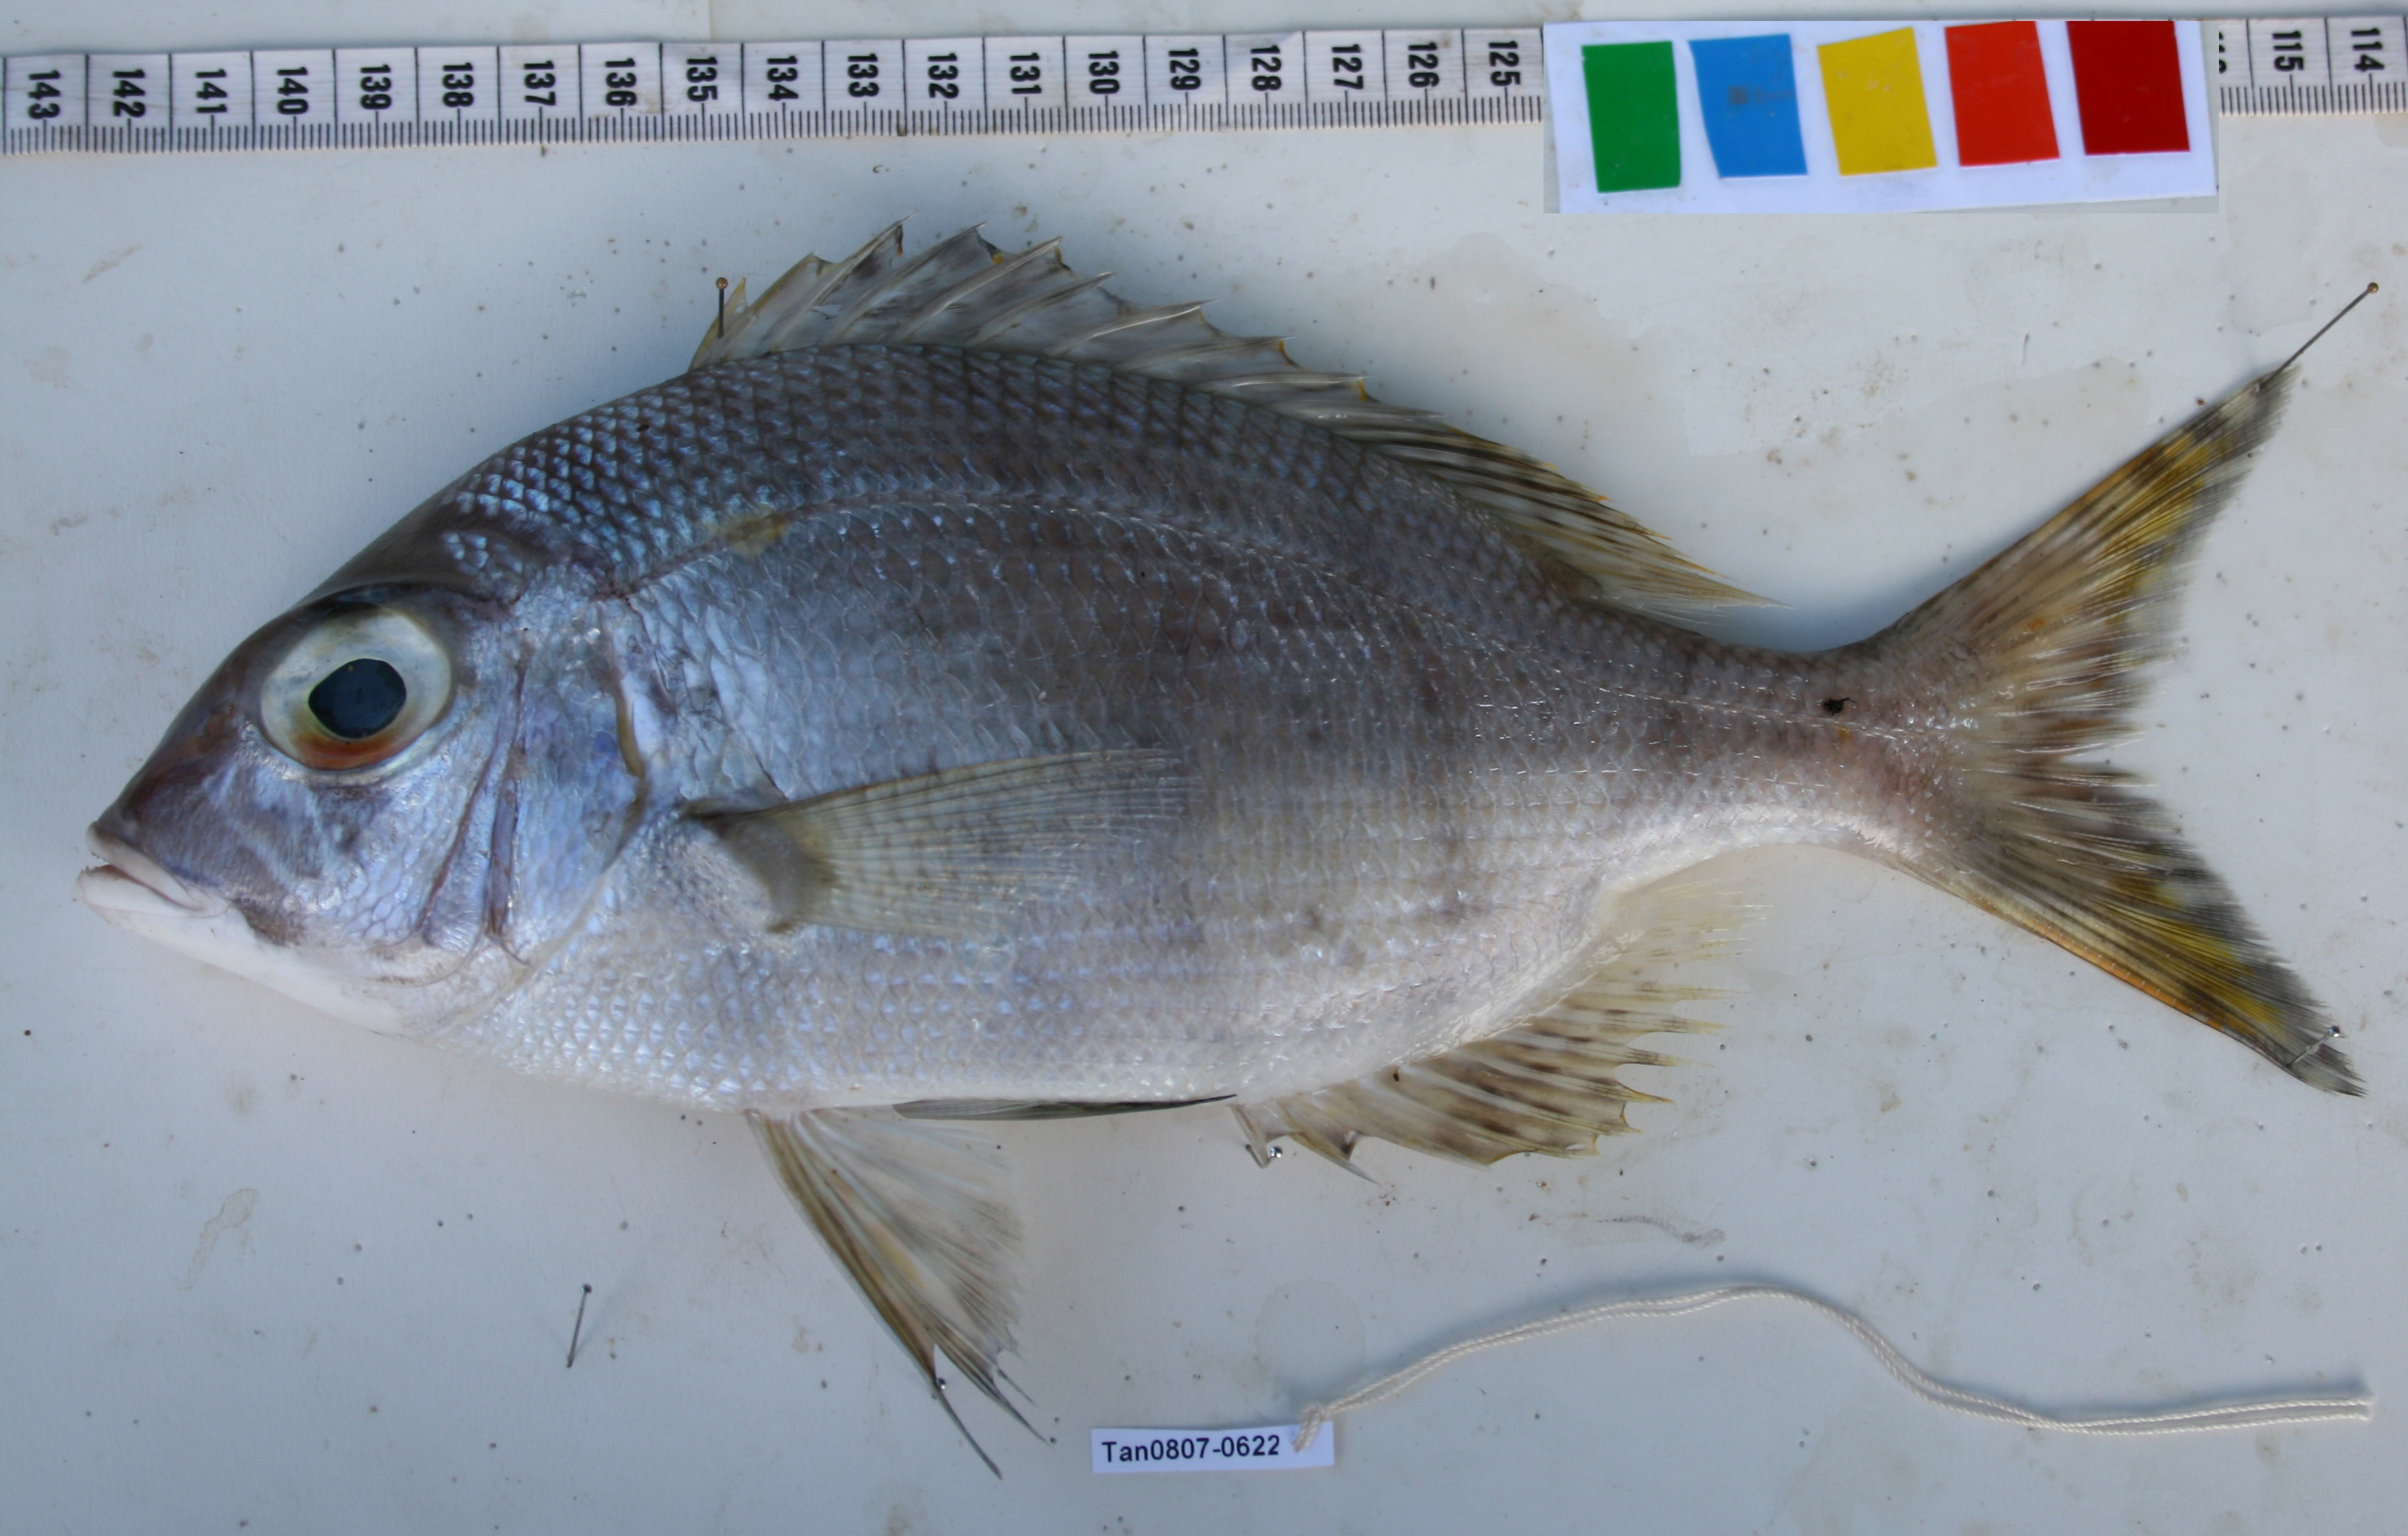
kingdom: Animalia
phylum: Chordata
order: Perciformes
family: Lethrinidae
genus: Gymnocranius
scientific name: Gymnocranius grandoculis
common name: Blue-lined large-eye bream
